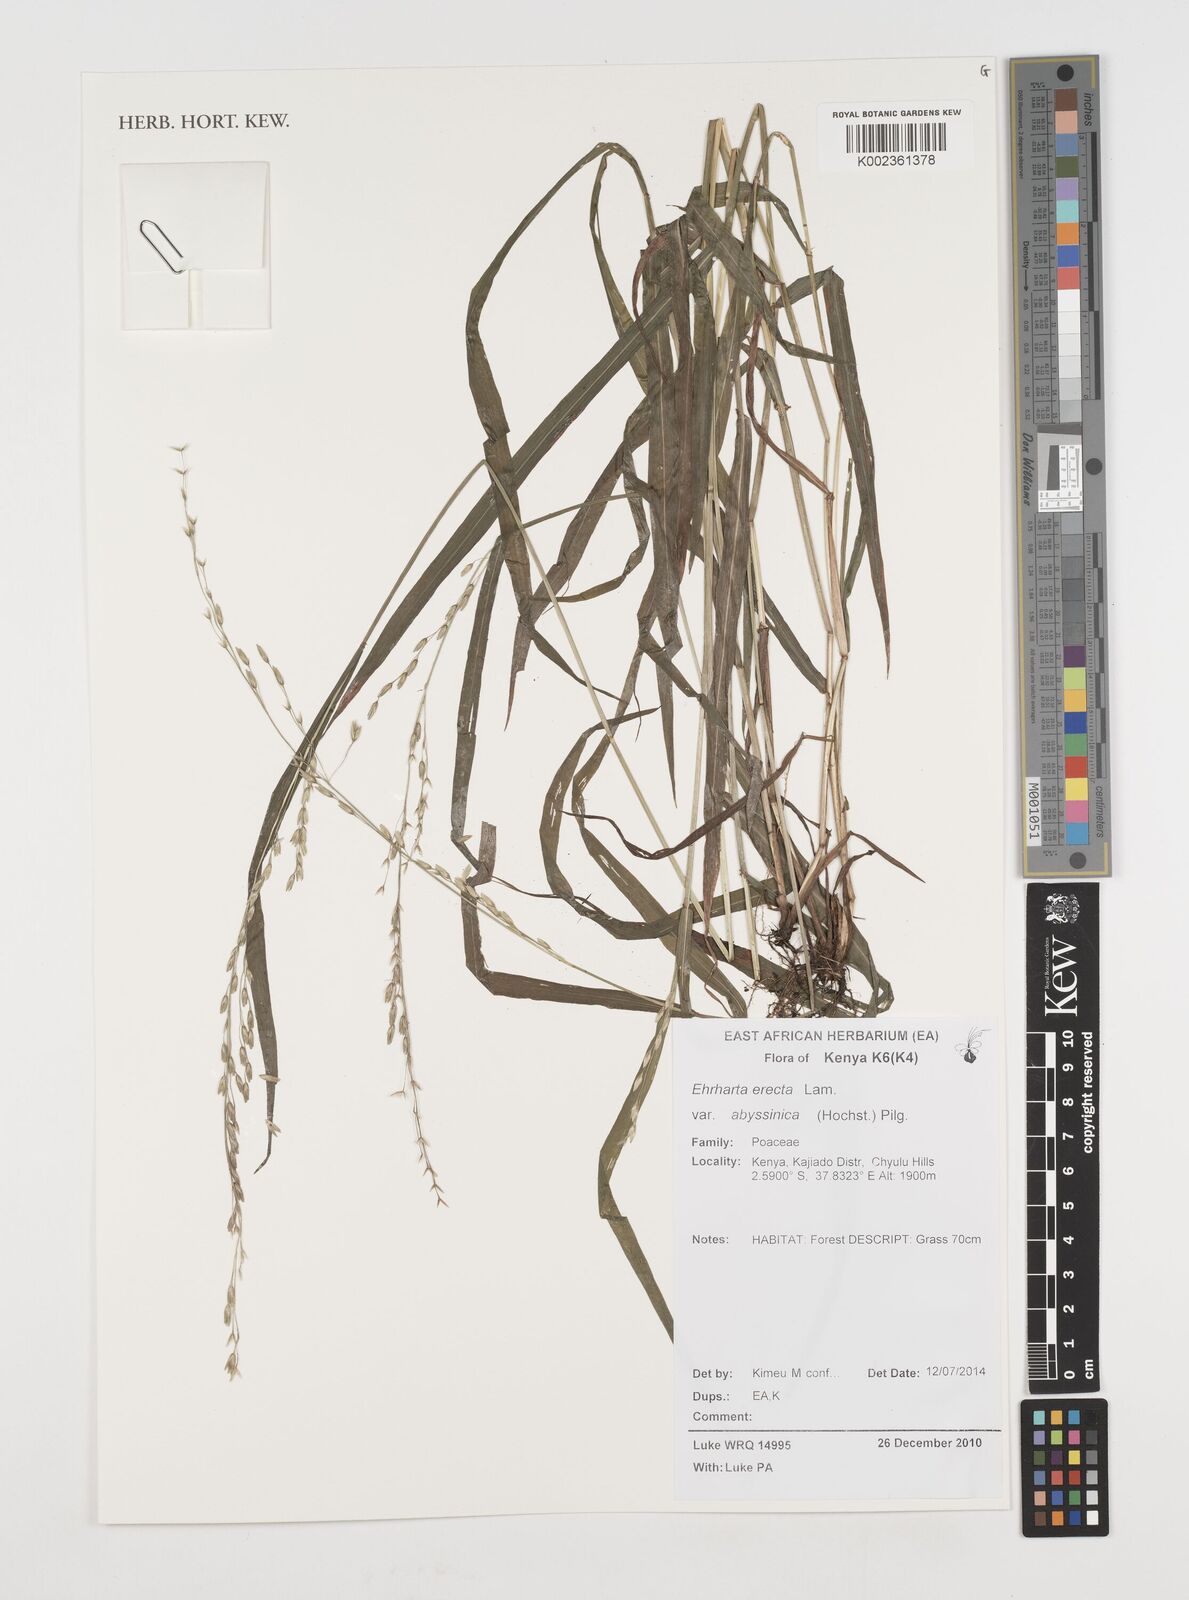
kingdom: Plantae
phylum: Tracheophyta
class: Liliopsida
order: Poales
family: Poaceae
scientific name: Poaceae
